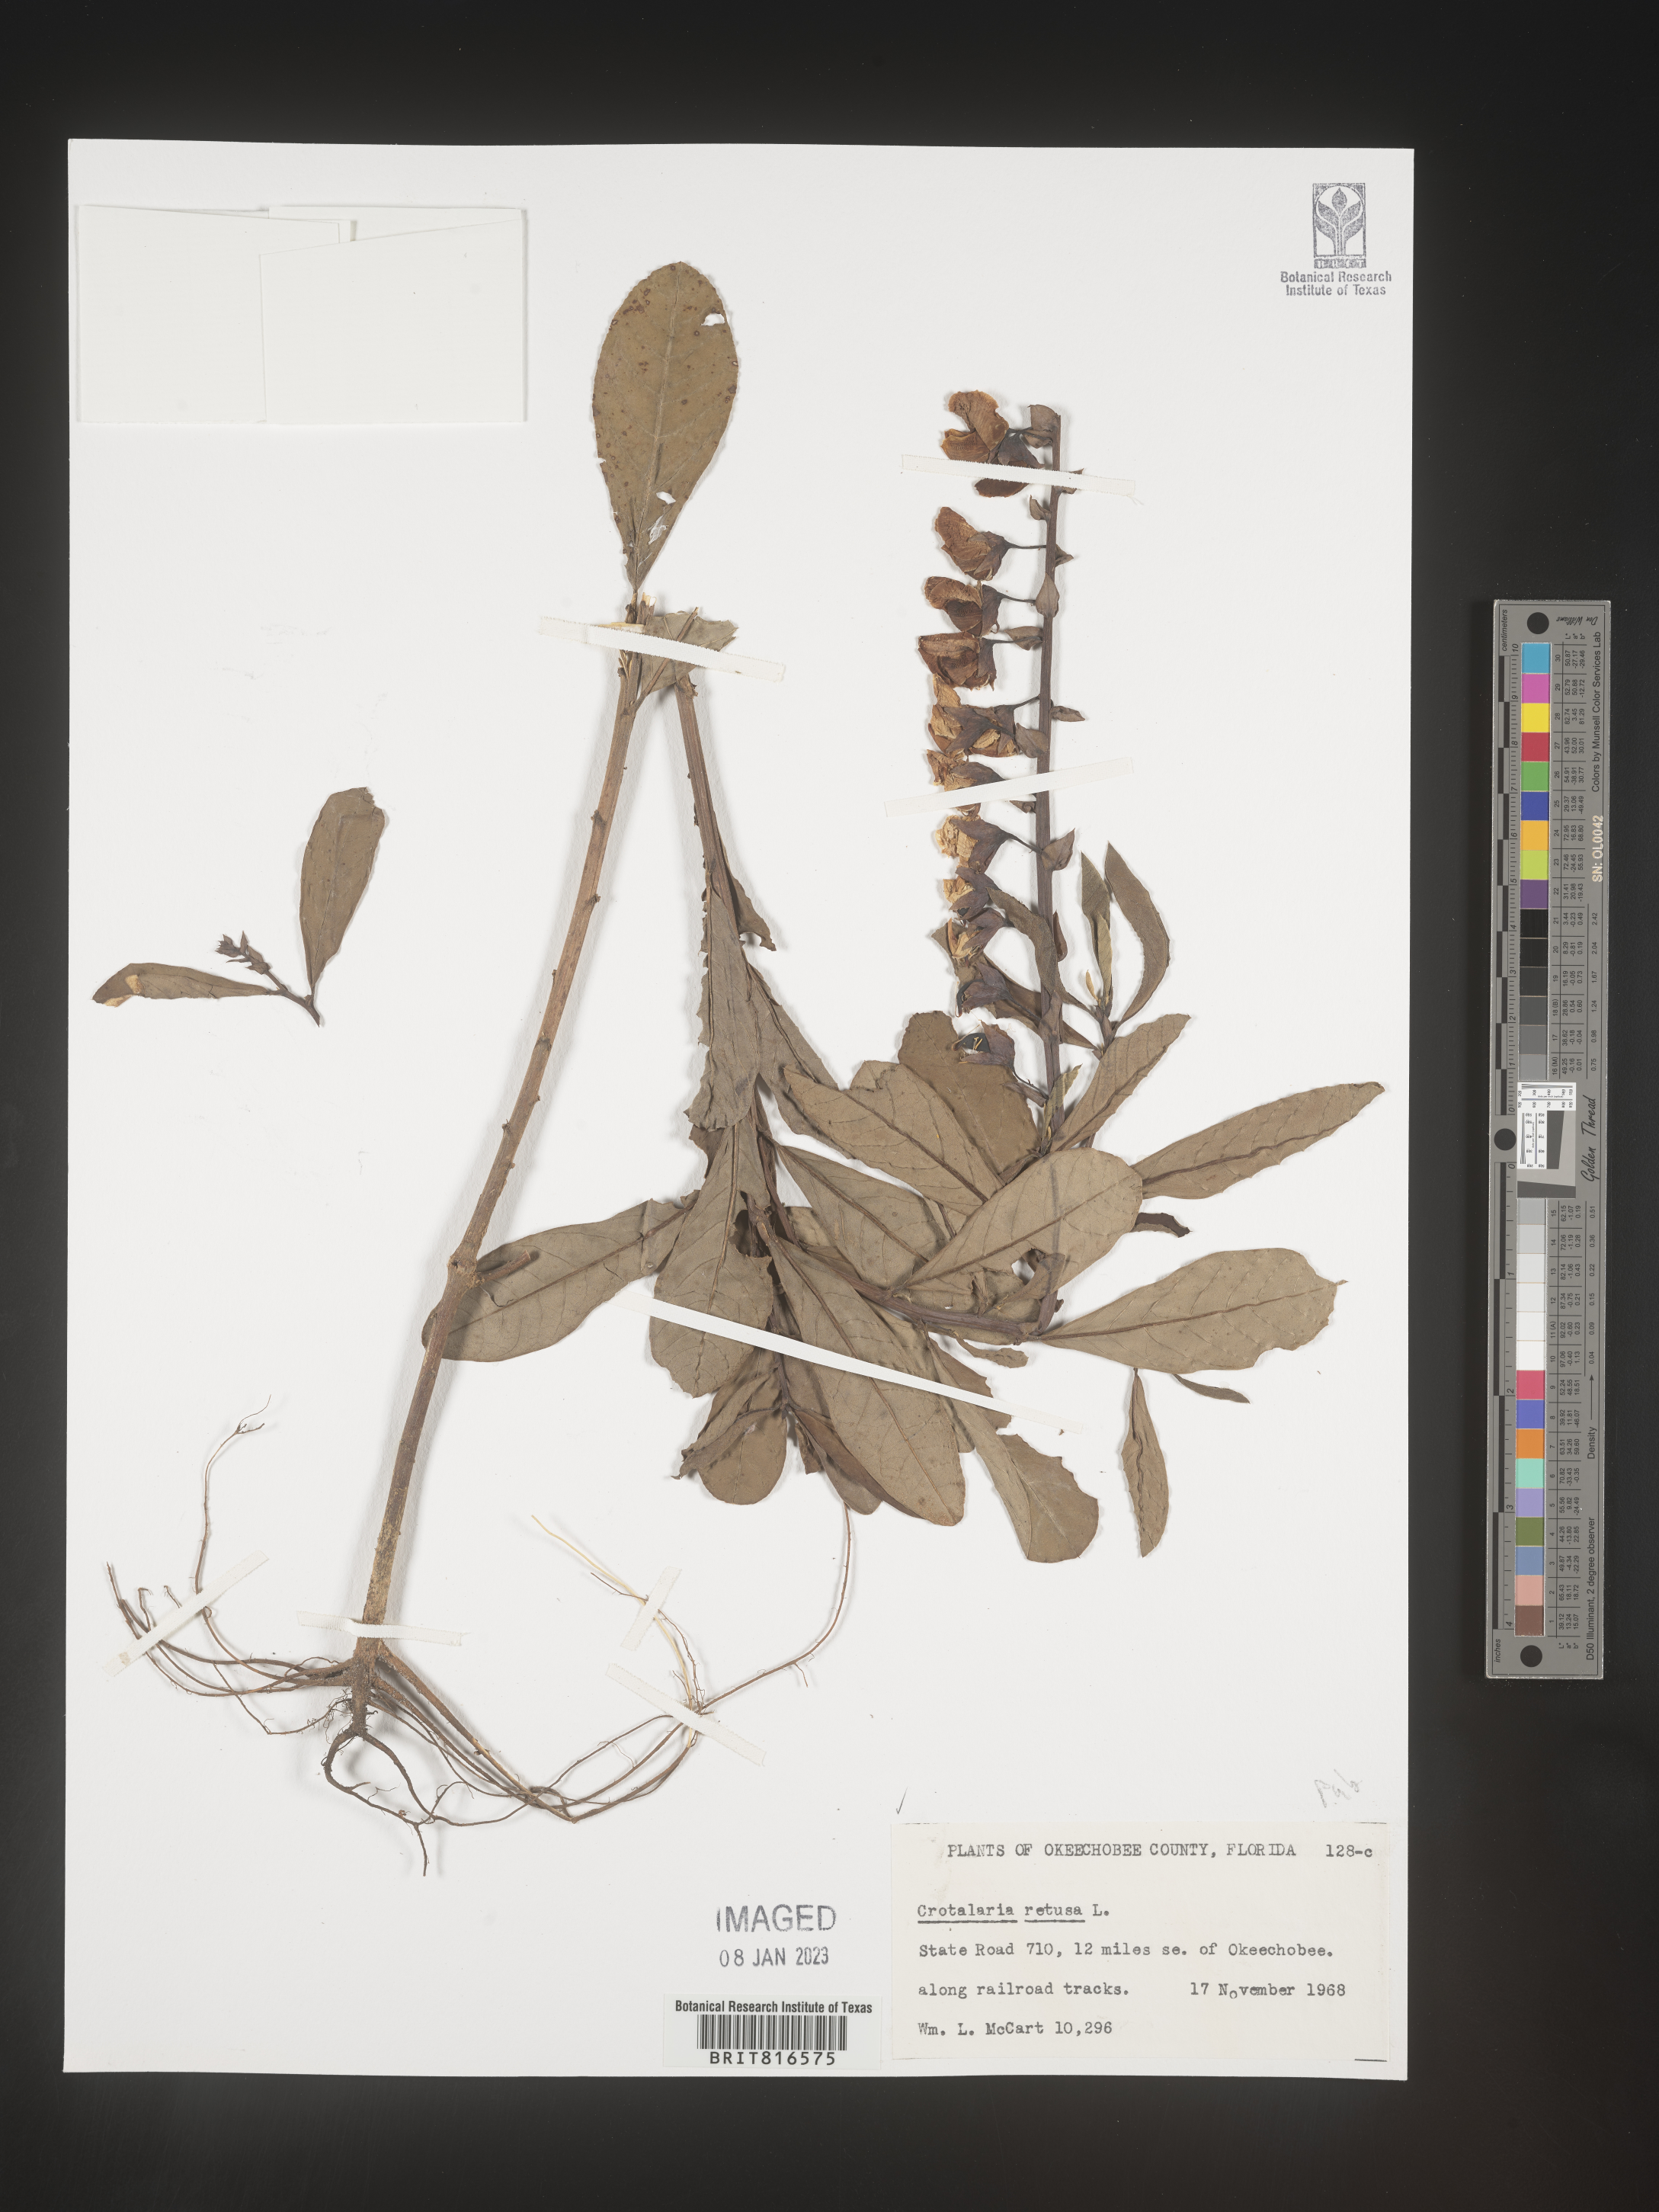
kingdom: Plantae
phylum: Tracheophyta
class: Magnoliopsida
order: Fabales
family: Fabaceae
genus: Crotalaria
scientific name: Crotalaria retusa
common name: Rattleweed
